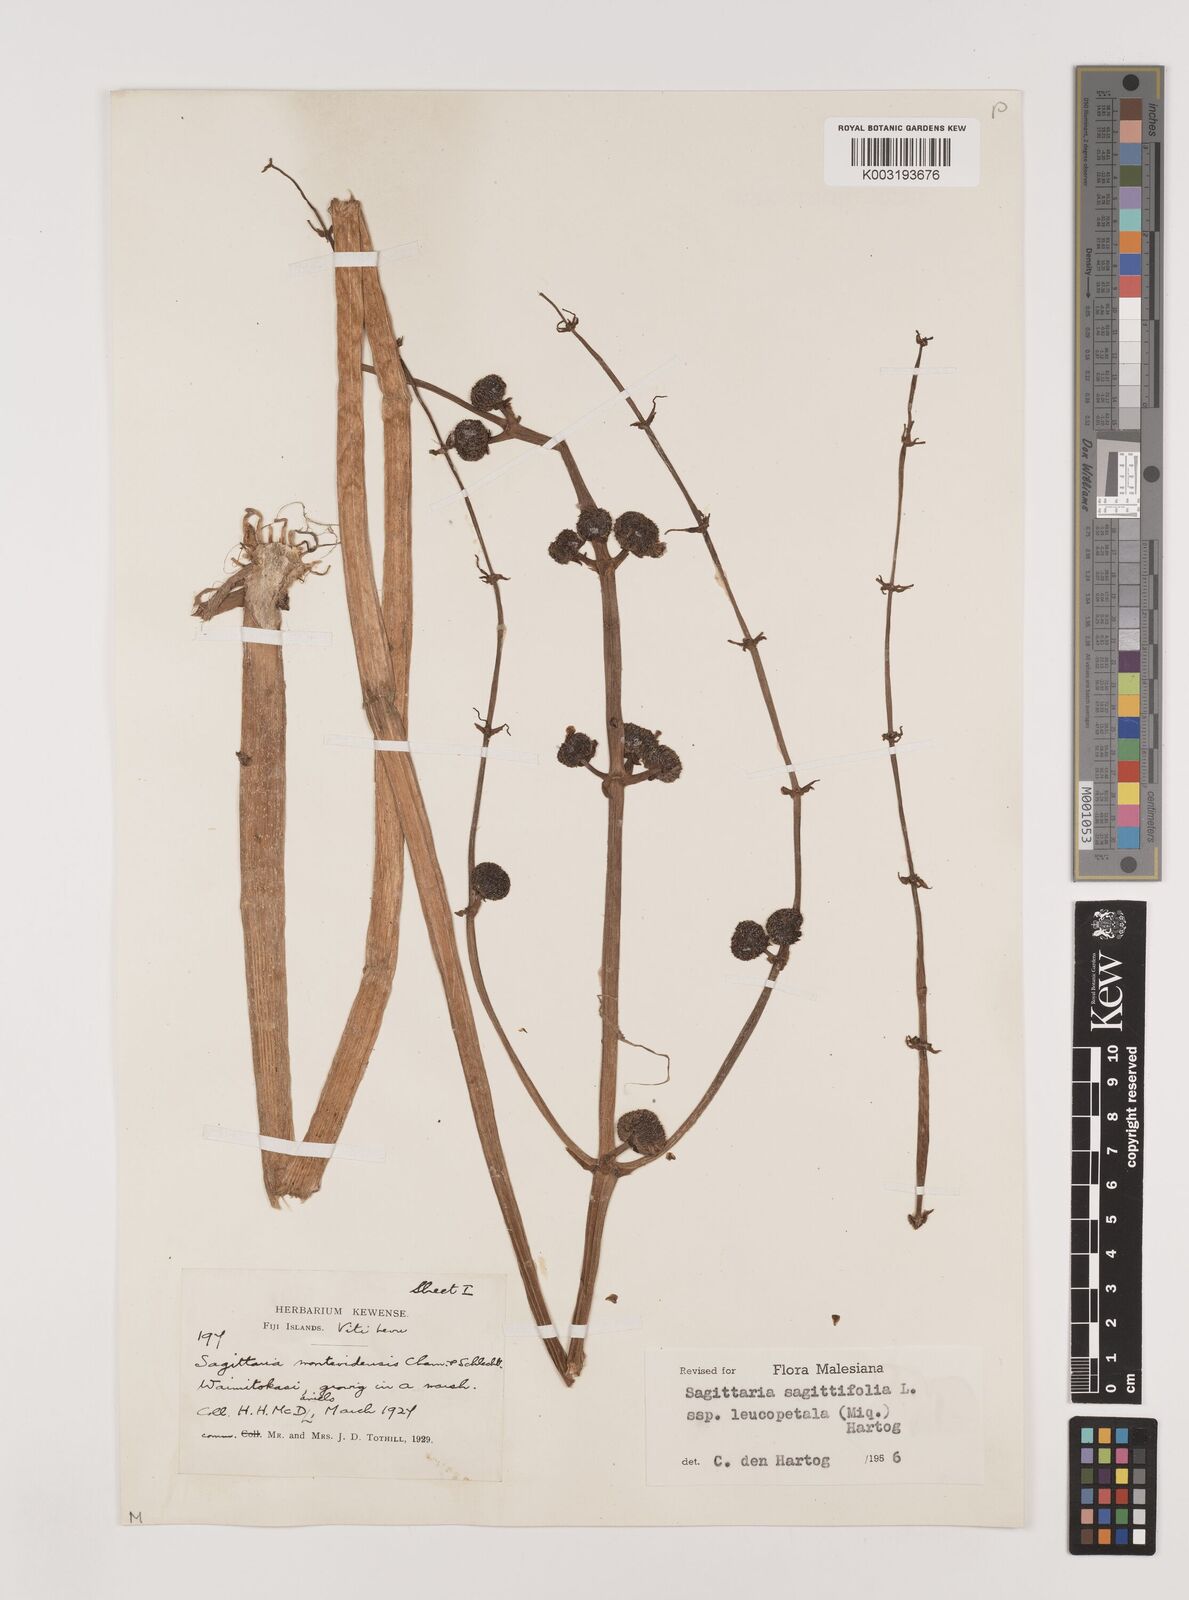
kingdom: Plantae
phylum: Tracheophyta
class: Liliopsida
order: Alismatales
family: Alismataceae
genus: Sagittaria
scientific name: Sagittaria trifolia
